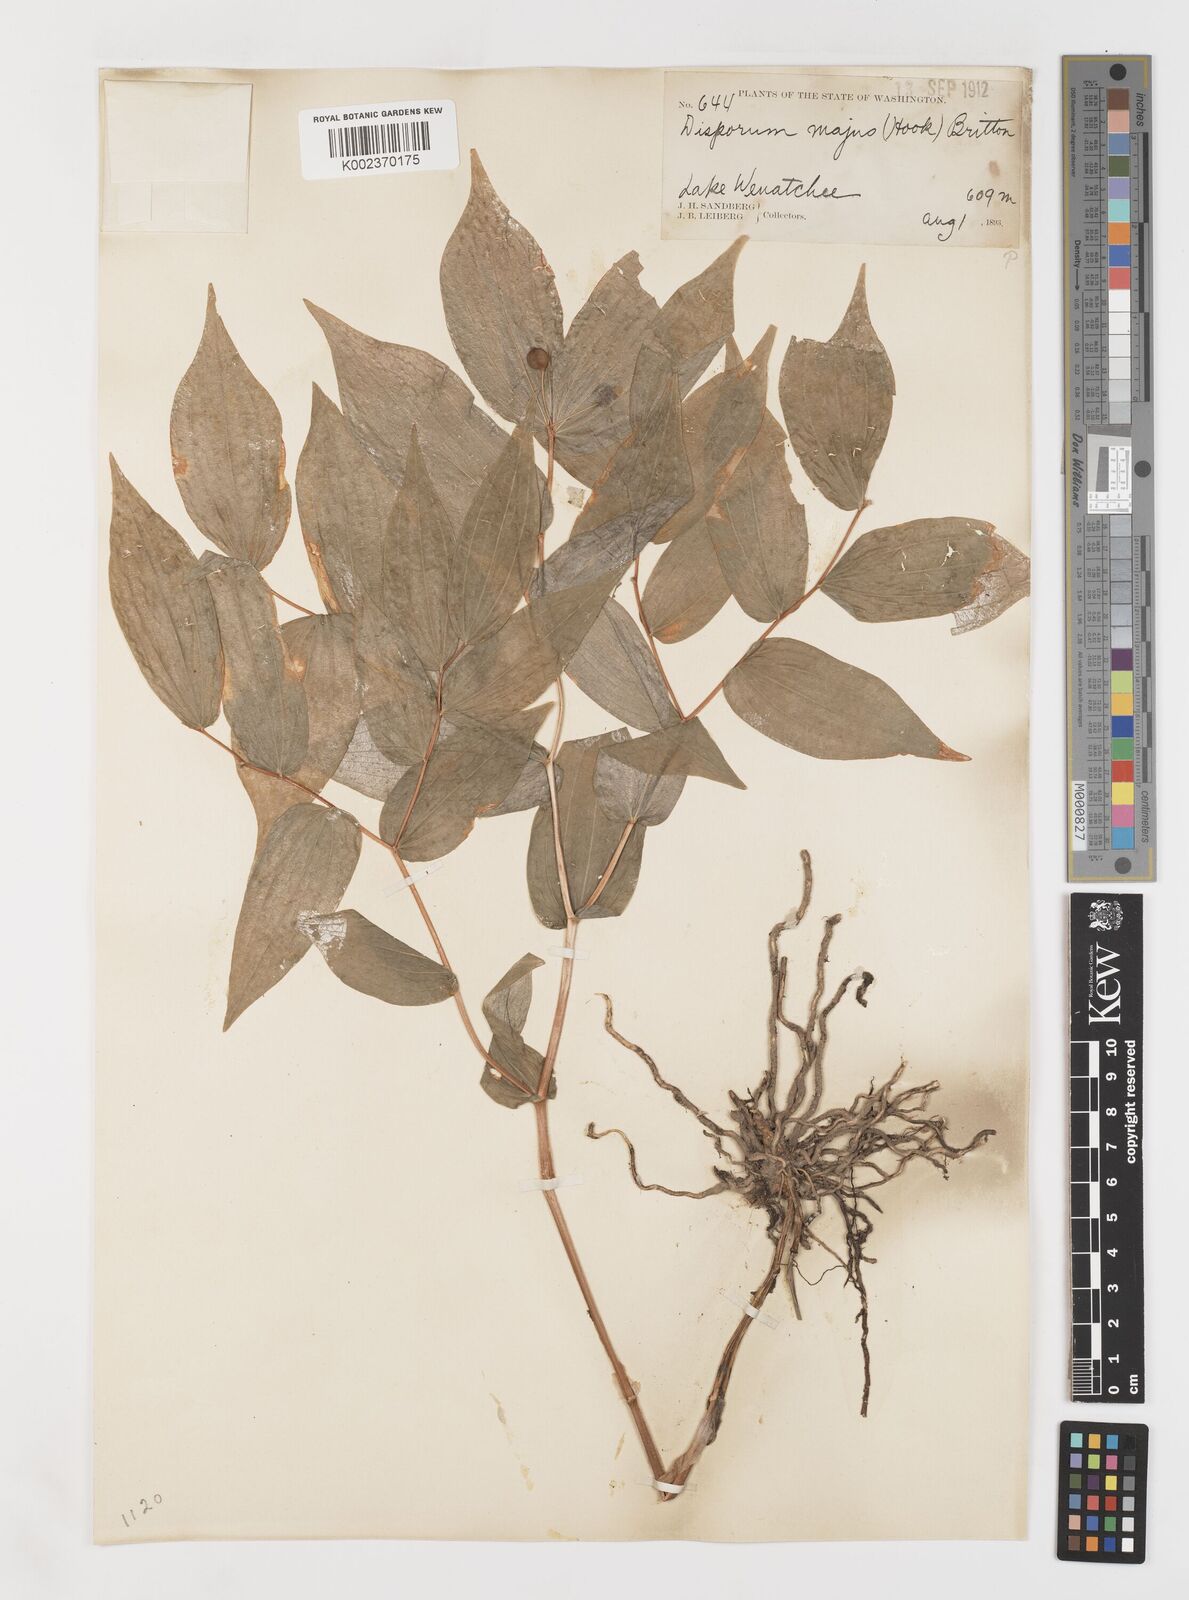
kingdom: Plantae
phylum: Tracheophyta
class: Liliopsida
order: Liliales
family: Liliaceae
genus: Prosartes
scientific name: Prosartes trachycarpa
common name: Rough-fruit fairy-bells
